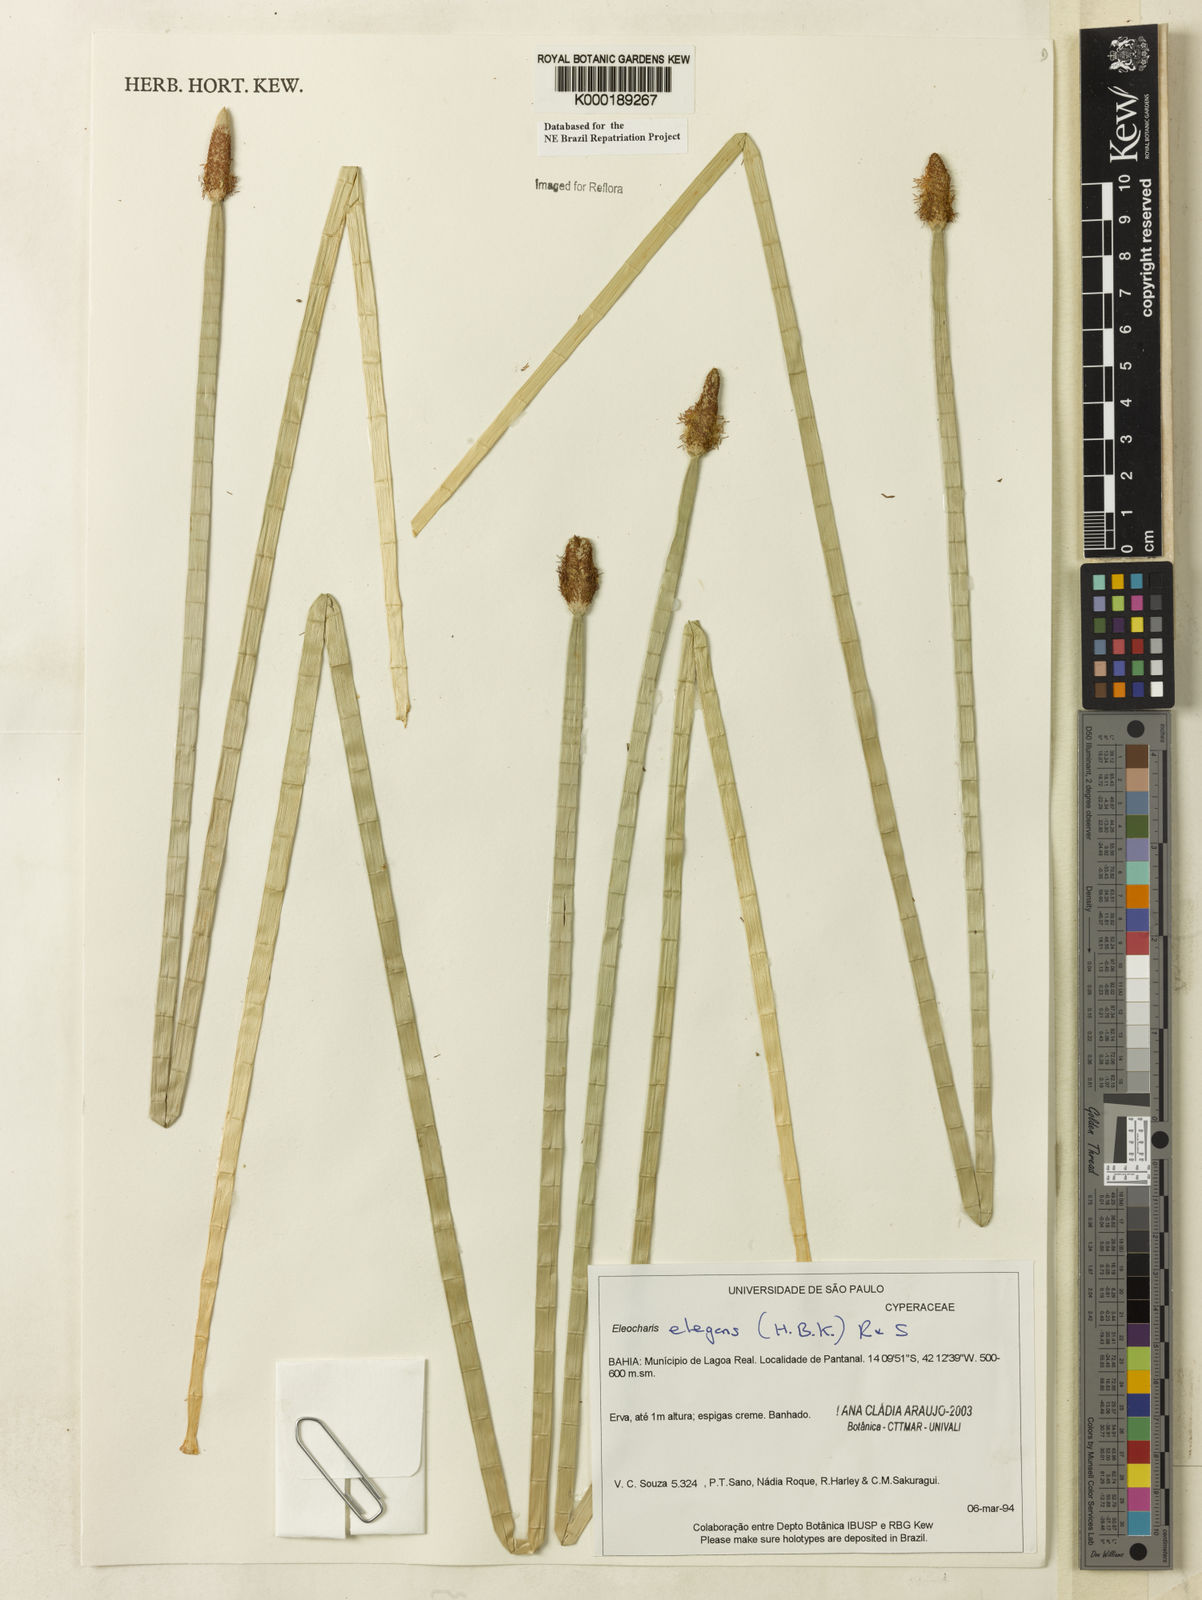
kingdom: Plantae
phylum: Tracheophyta
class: Liliopsida
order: Poales
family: Cyperaceae
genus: Eleocharis
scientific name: Eleocharis elegans
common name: Elegant spike-rush
